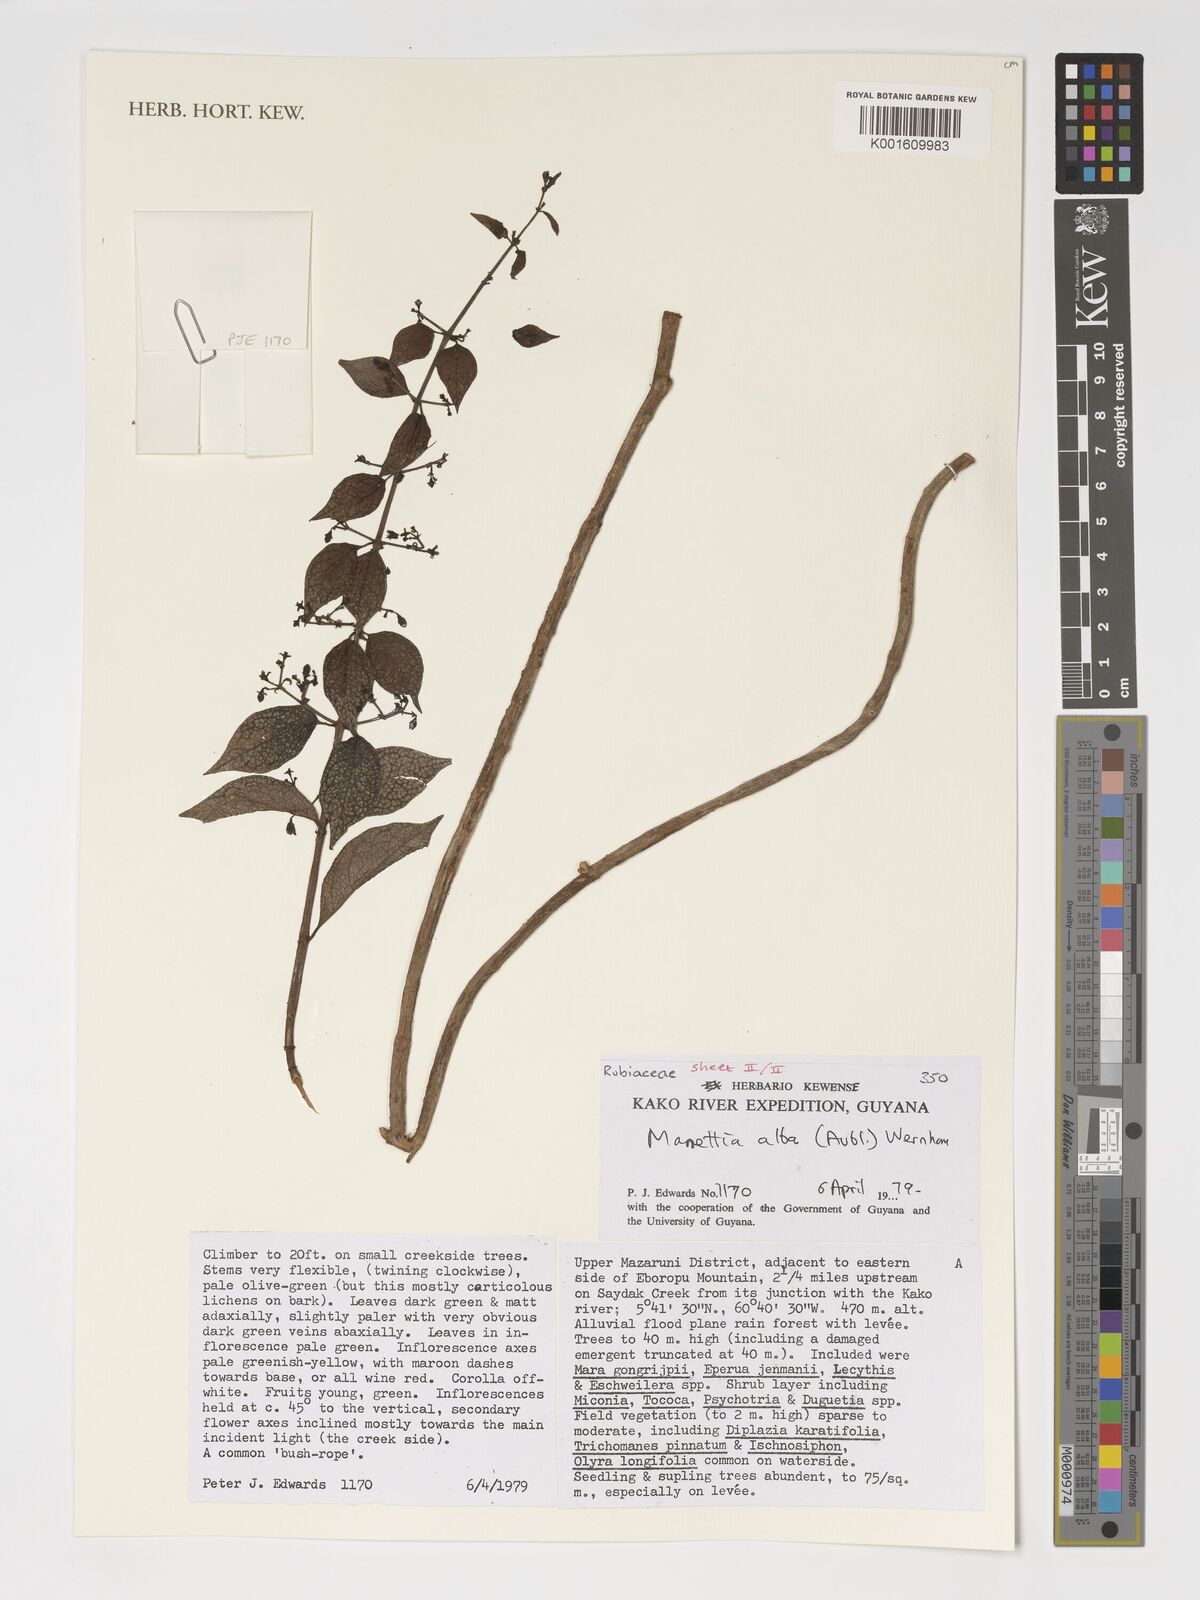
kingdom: Plantae
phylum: Tracheophyta
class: Magnoliopsida
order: Gentianales
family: Rubiaceae
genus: Manettia
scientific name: Manettia alba
